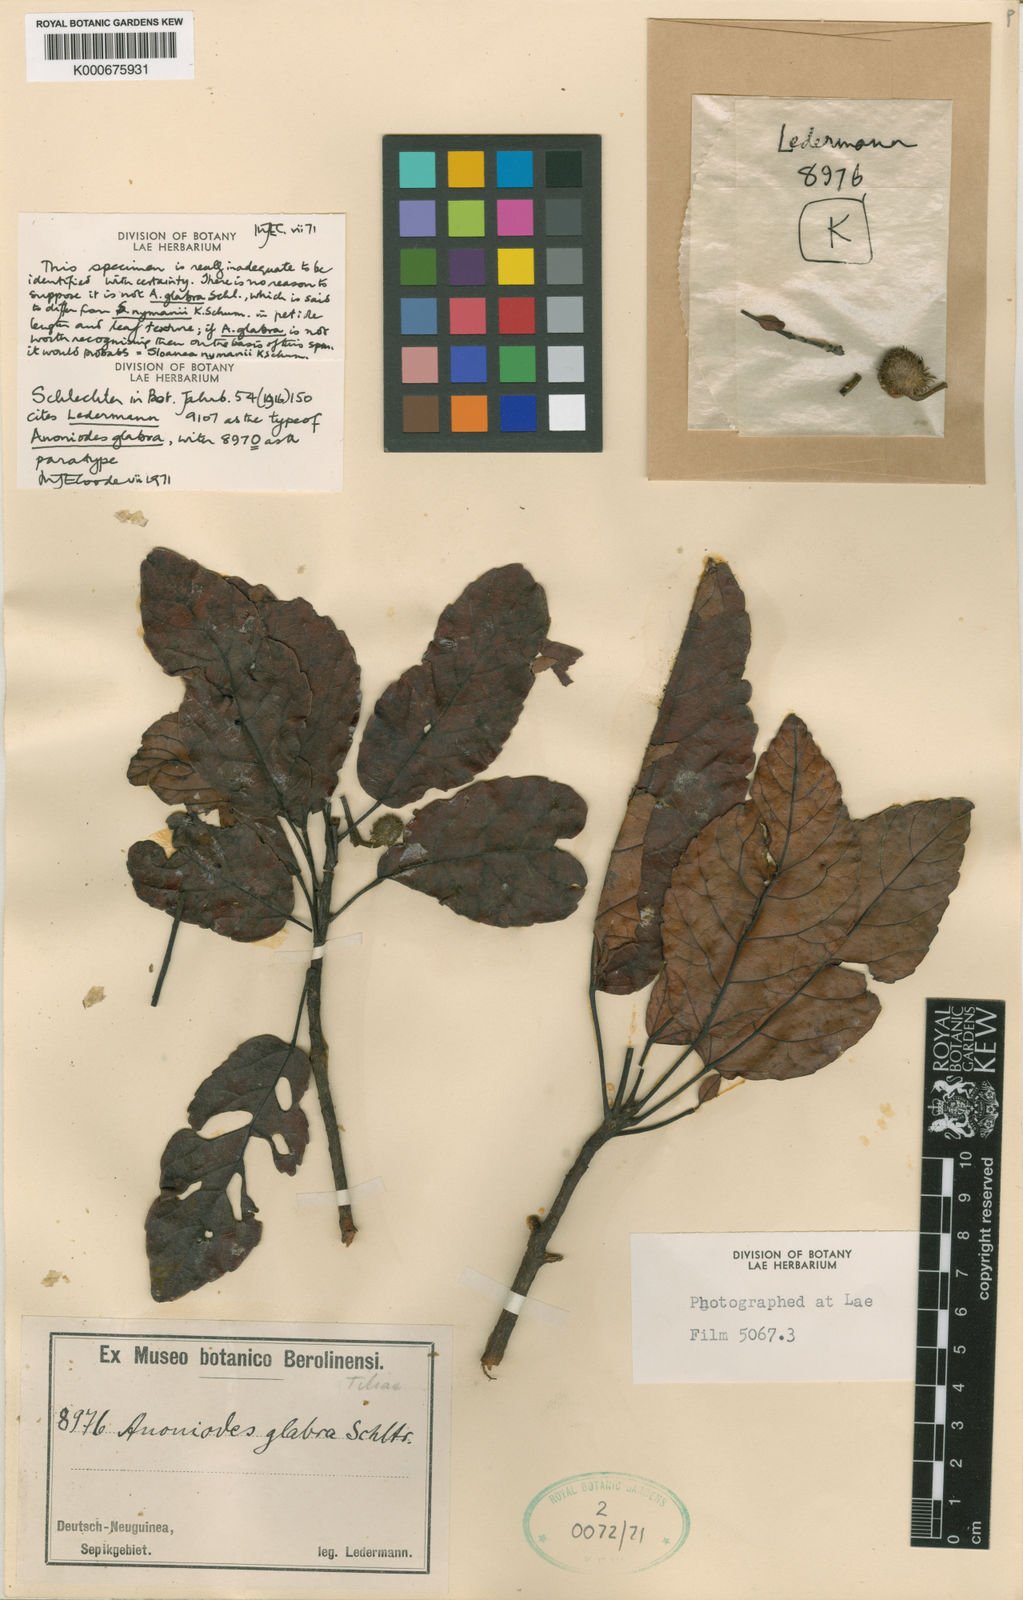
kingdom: Plantae
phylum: Tracheophyta
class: Magnoliopsida
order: Oxalidales
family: Elaeocarpaceae
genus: Sloanea
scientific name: Sloanea nymanii
